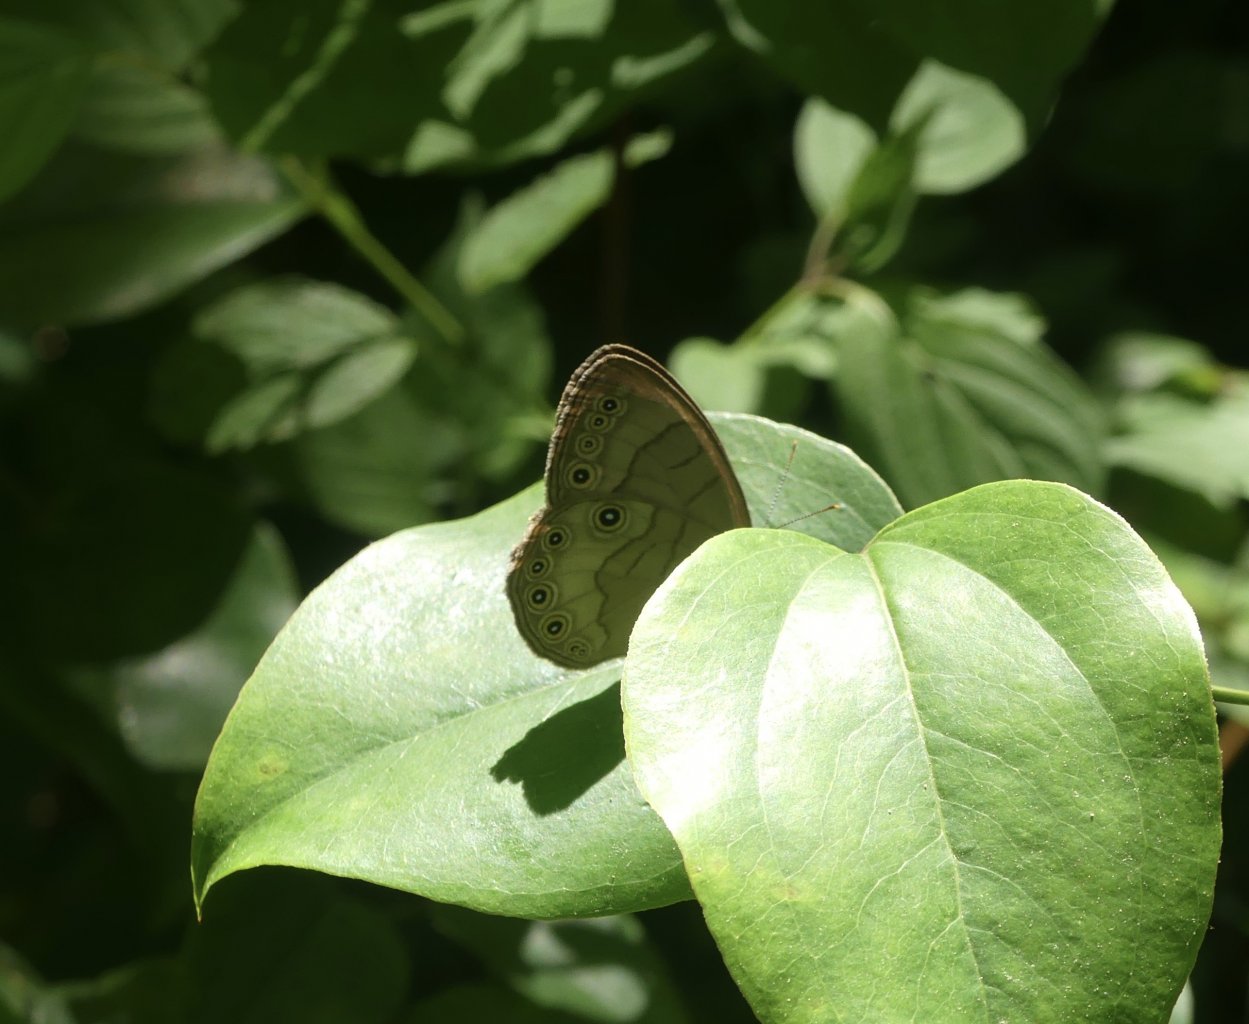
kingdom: Animalia
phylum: Arthropoda
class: Insecta
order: Lepidoptera
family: Nymphalidae
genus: Lethe
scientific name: Lethe eurydice
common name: Appalachian Eyed Brown
